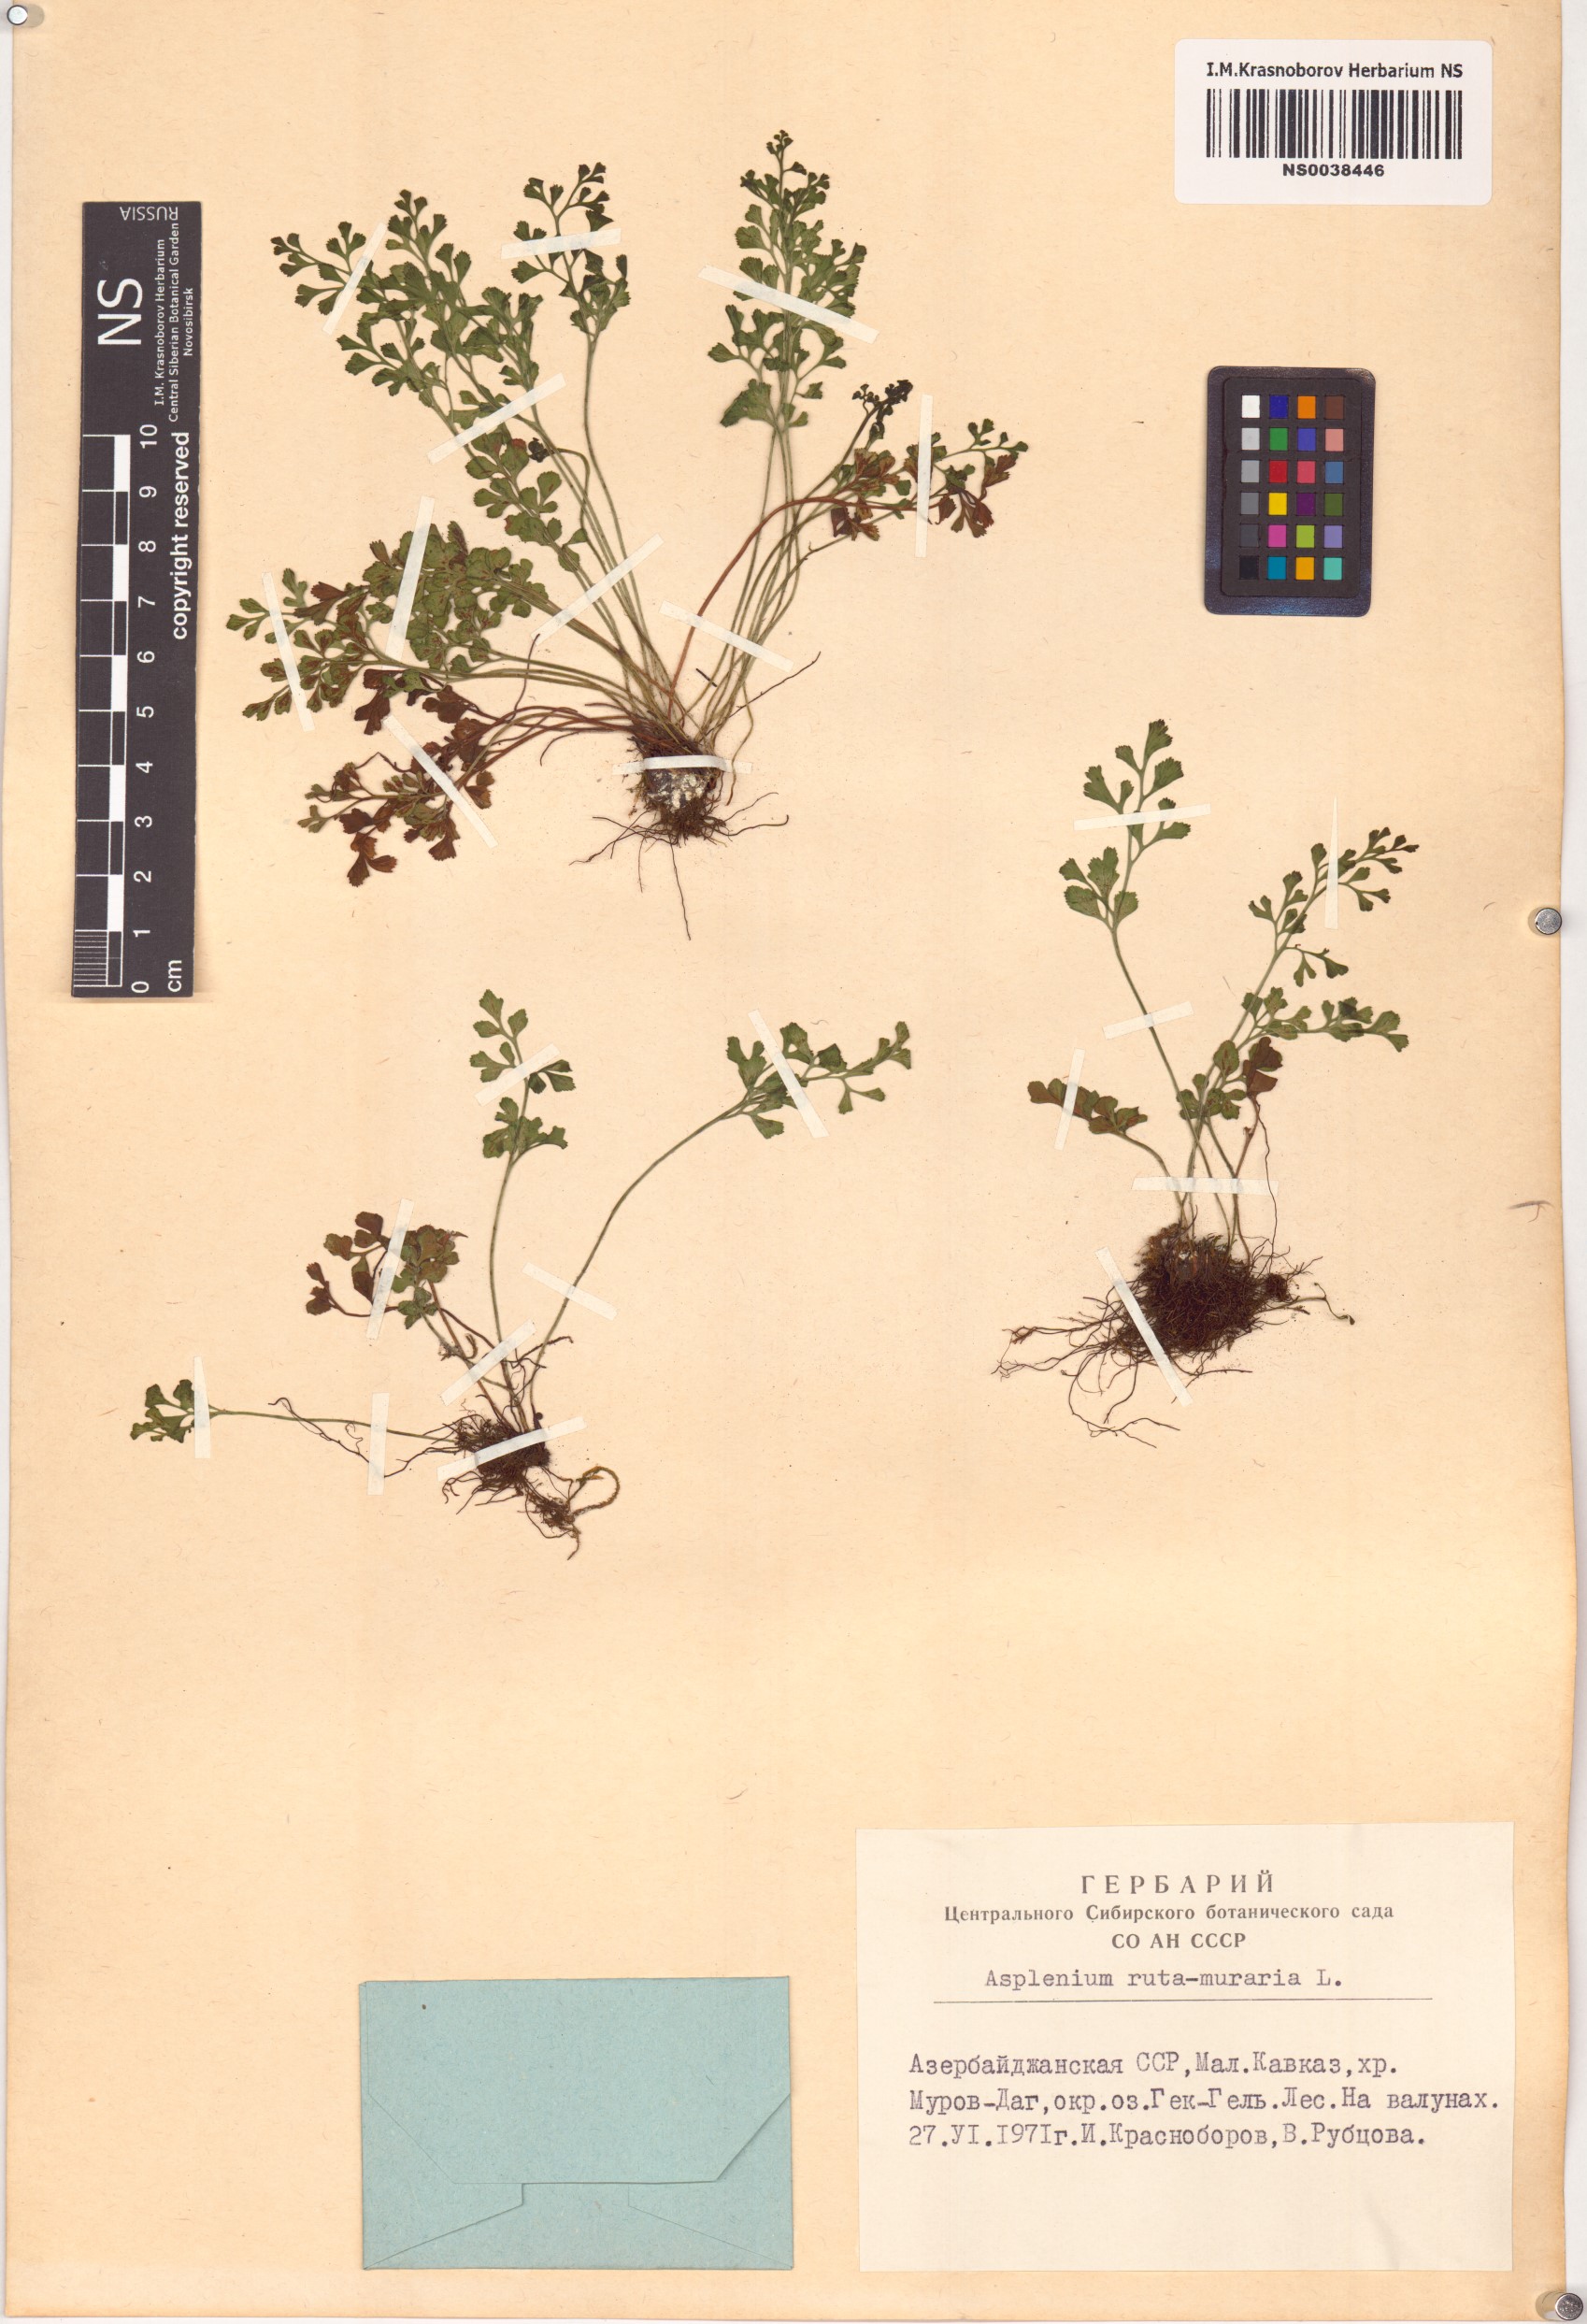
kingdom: Plantae
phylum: Tracheophyta
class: Polypodiopsida
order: Polypodiales
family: Aspleniaceae
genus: Asplenium
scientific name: Asplenium ruta-muraria
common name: Wall-rue
